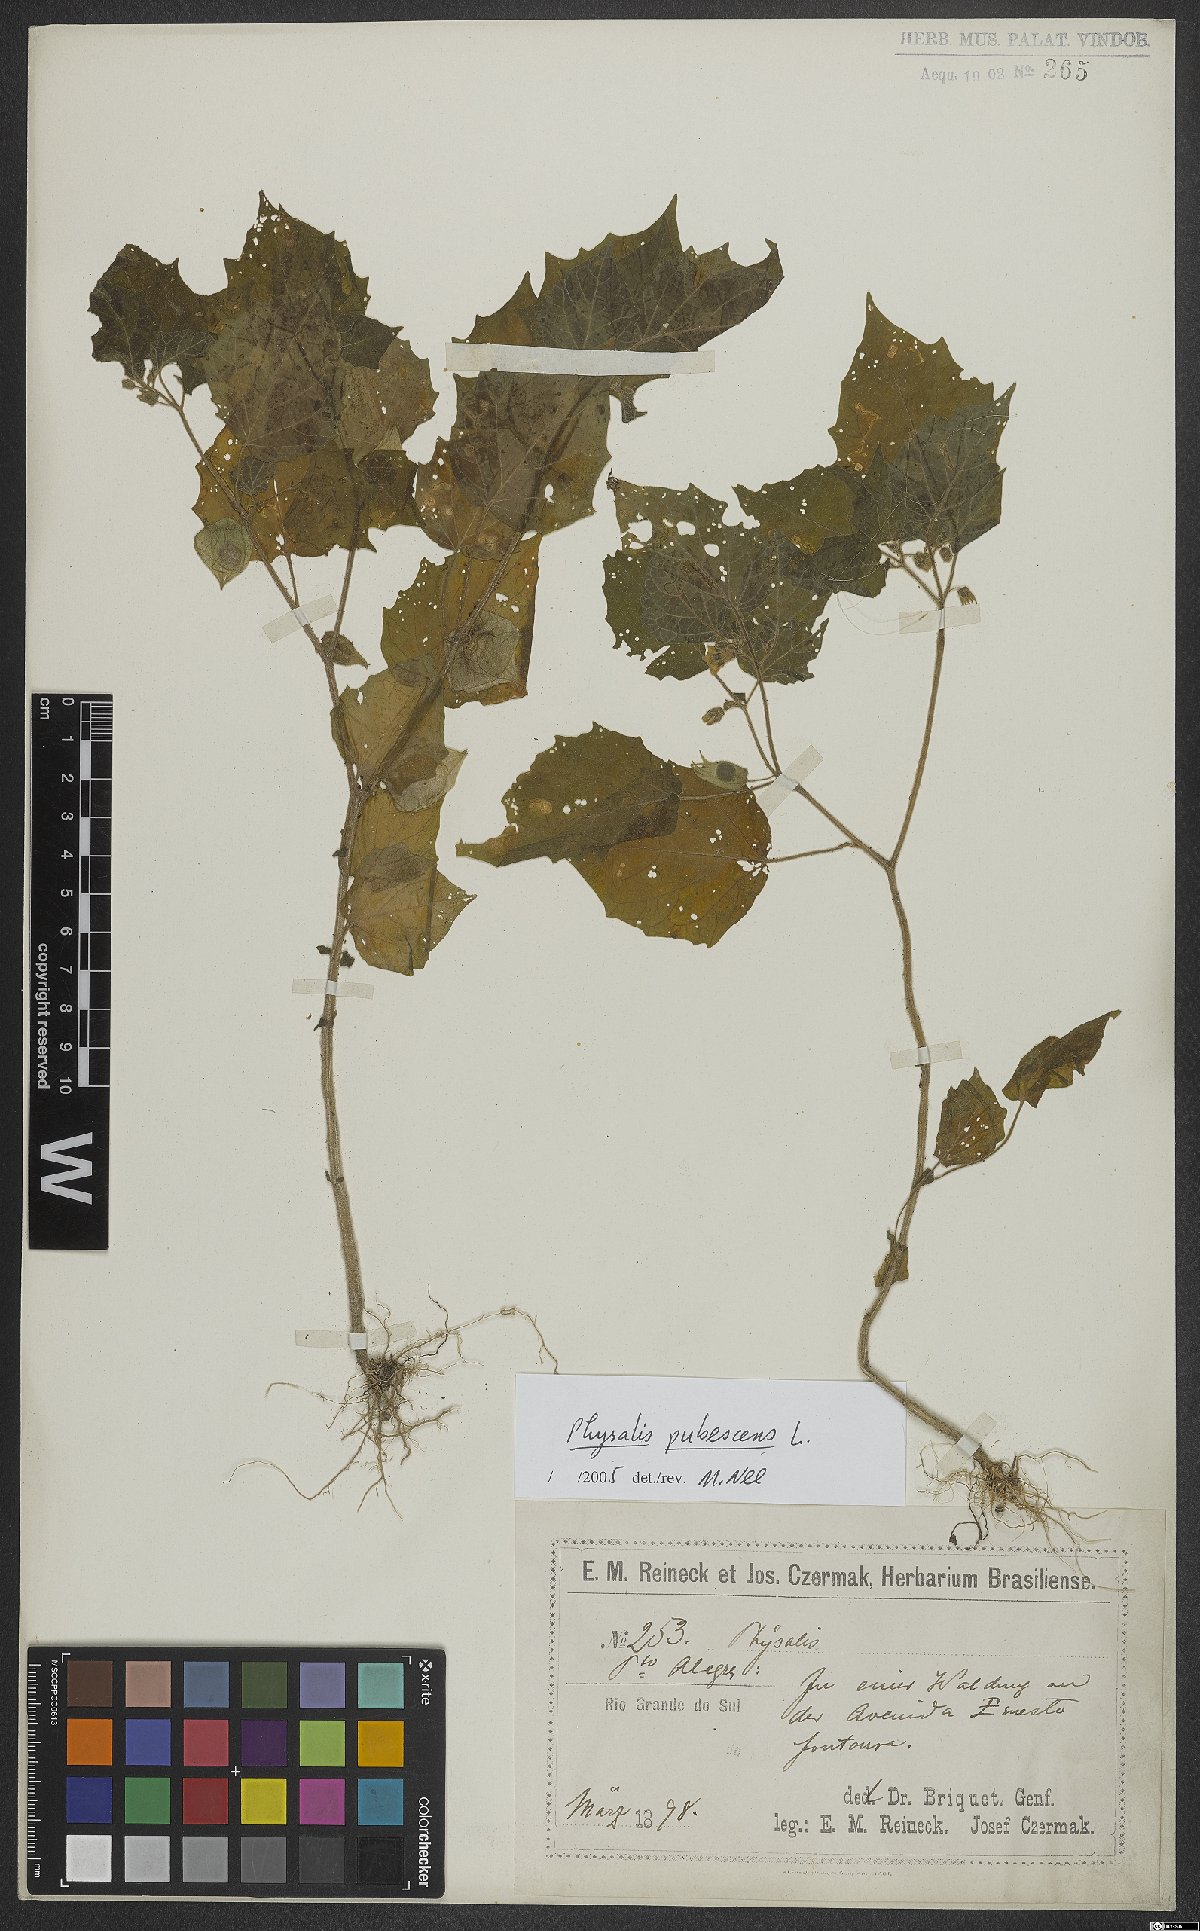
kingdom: Plantae
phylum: Tracheophyta
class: Magnoliopsida
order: Solanales
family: Solanaceae
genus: Physalis
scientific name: Physalis pubescens
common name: Downy ground-cherry
